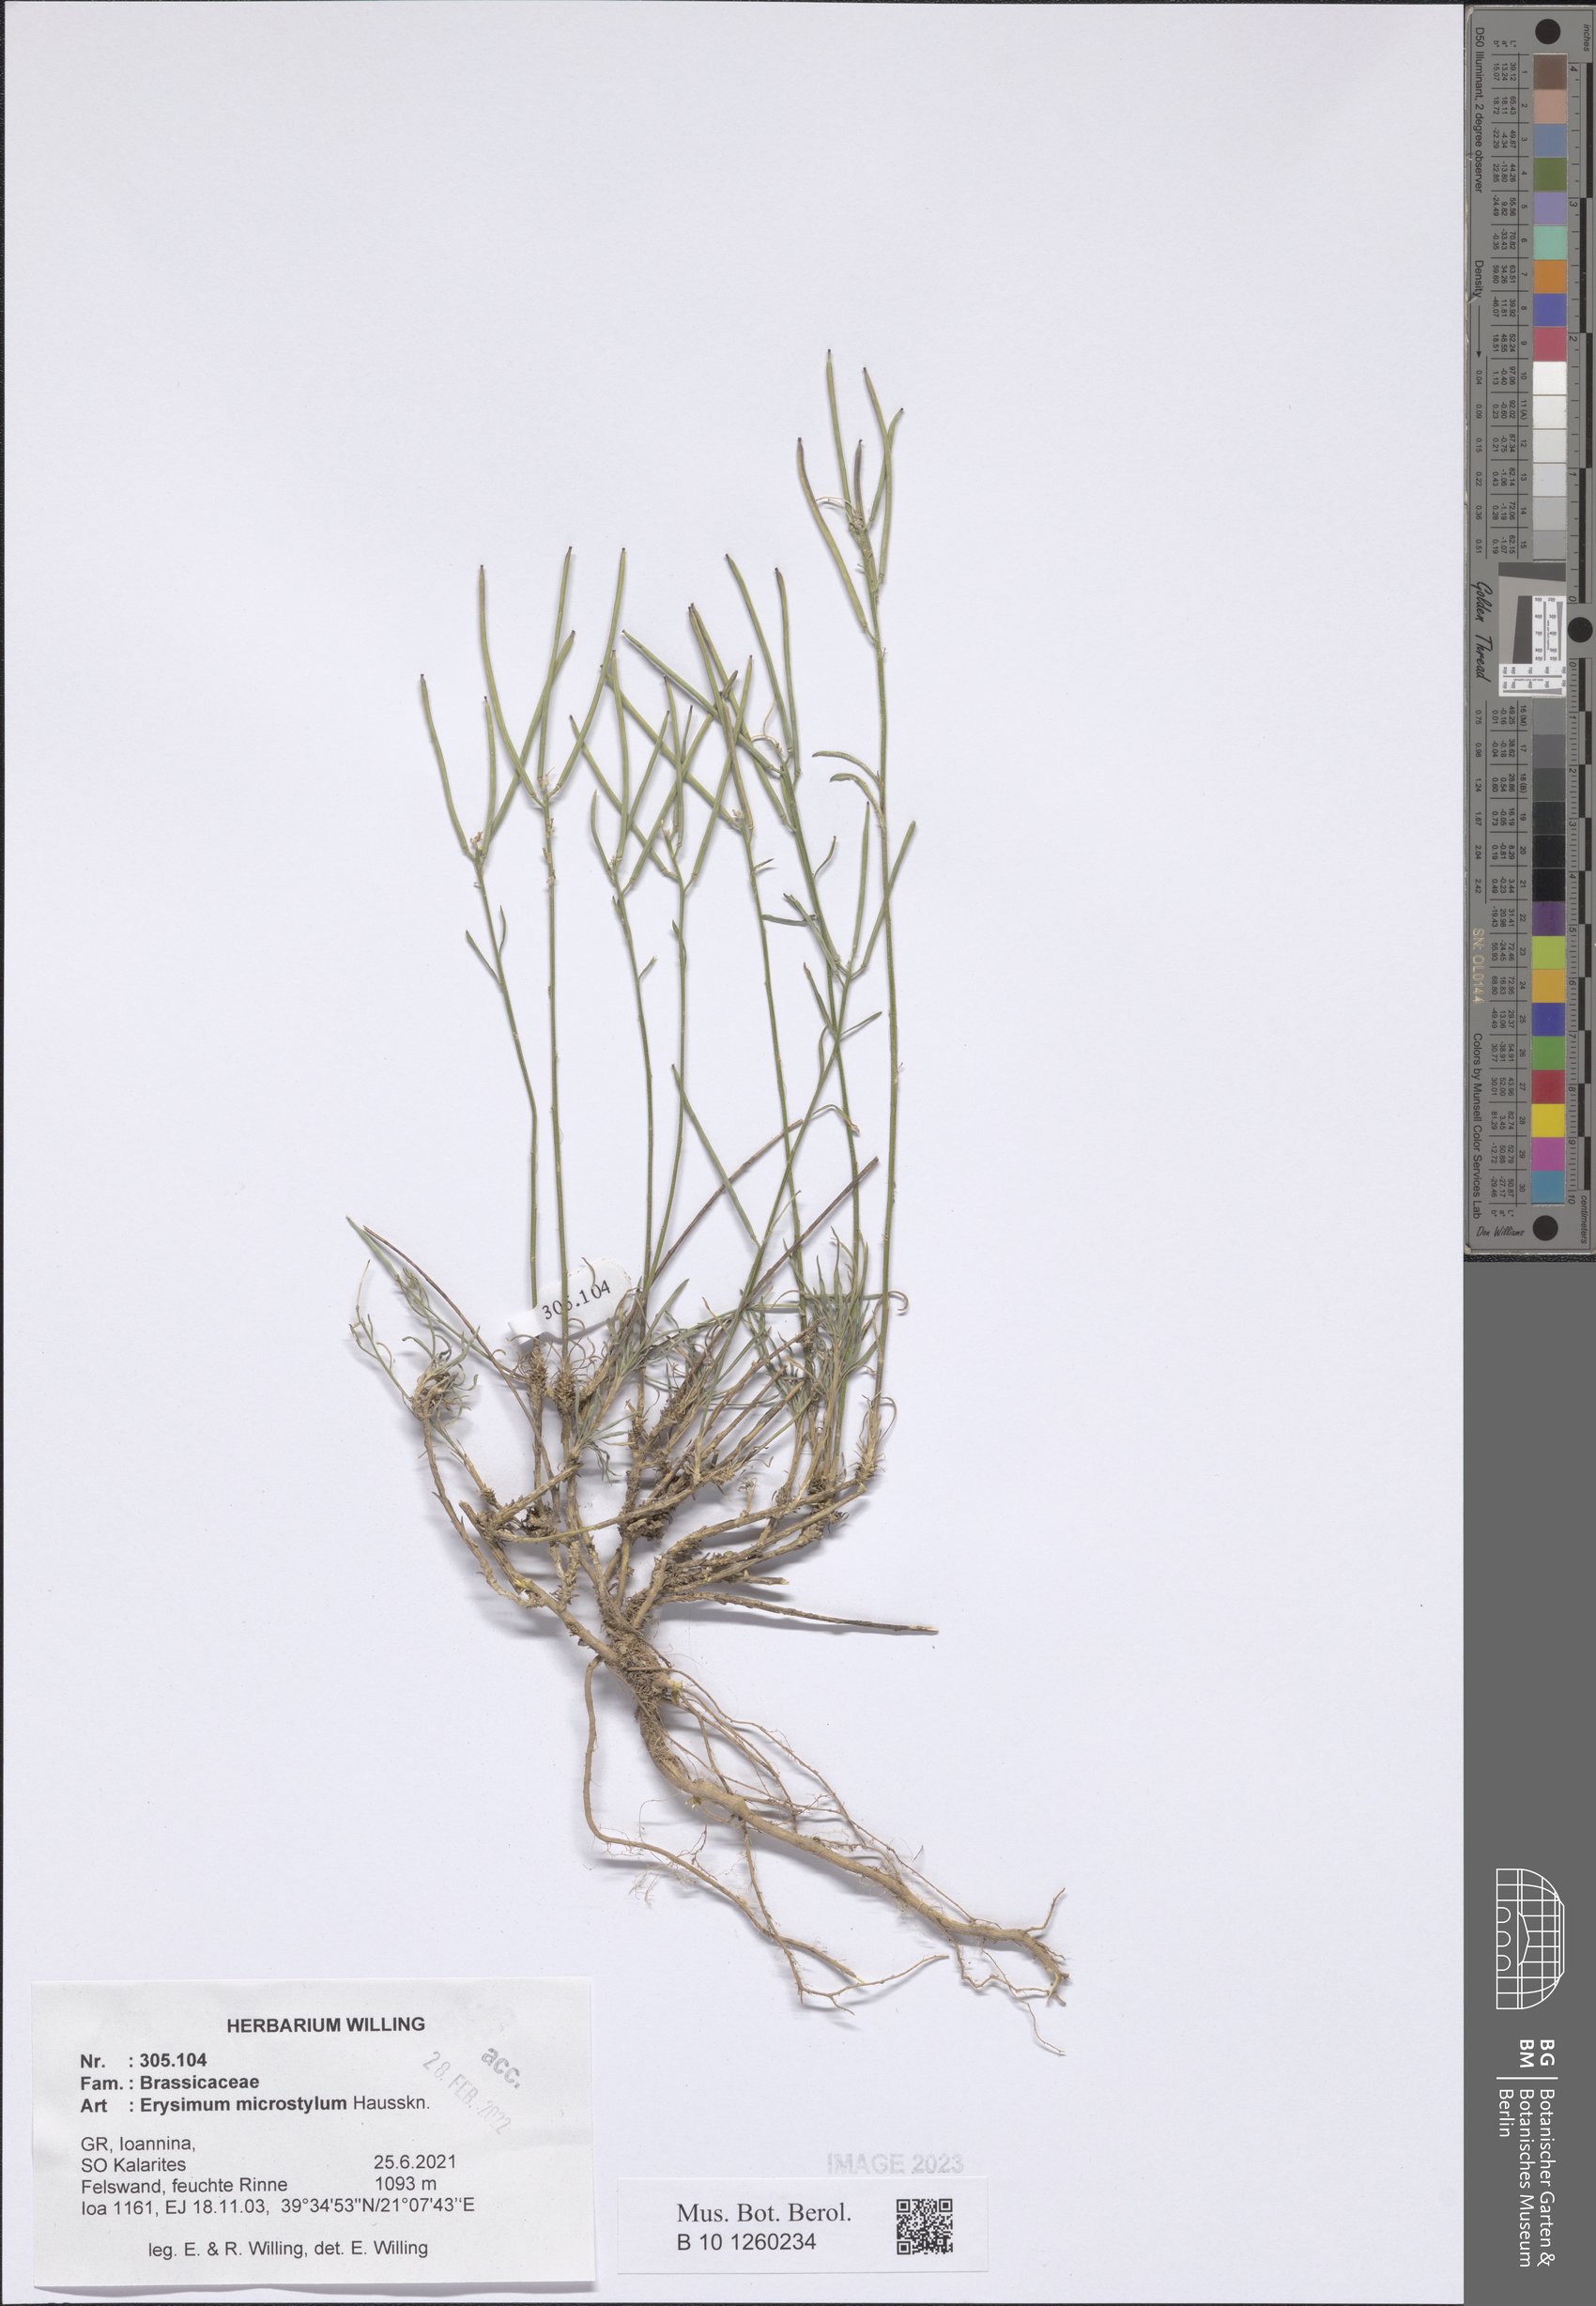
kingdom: Plantae
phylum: Tracheophyta
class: Magnoliopsida
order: Brassicales
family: Brassicaceae
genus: Erysimum
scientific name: Erysimum pusillum
